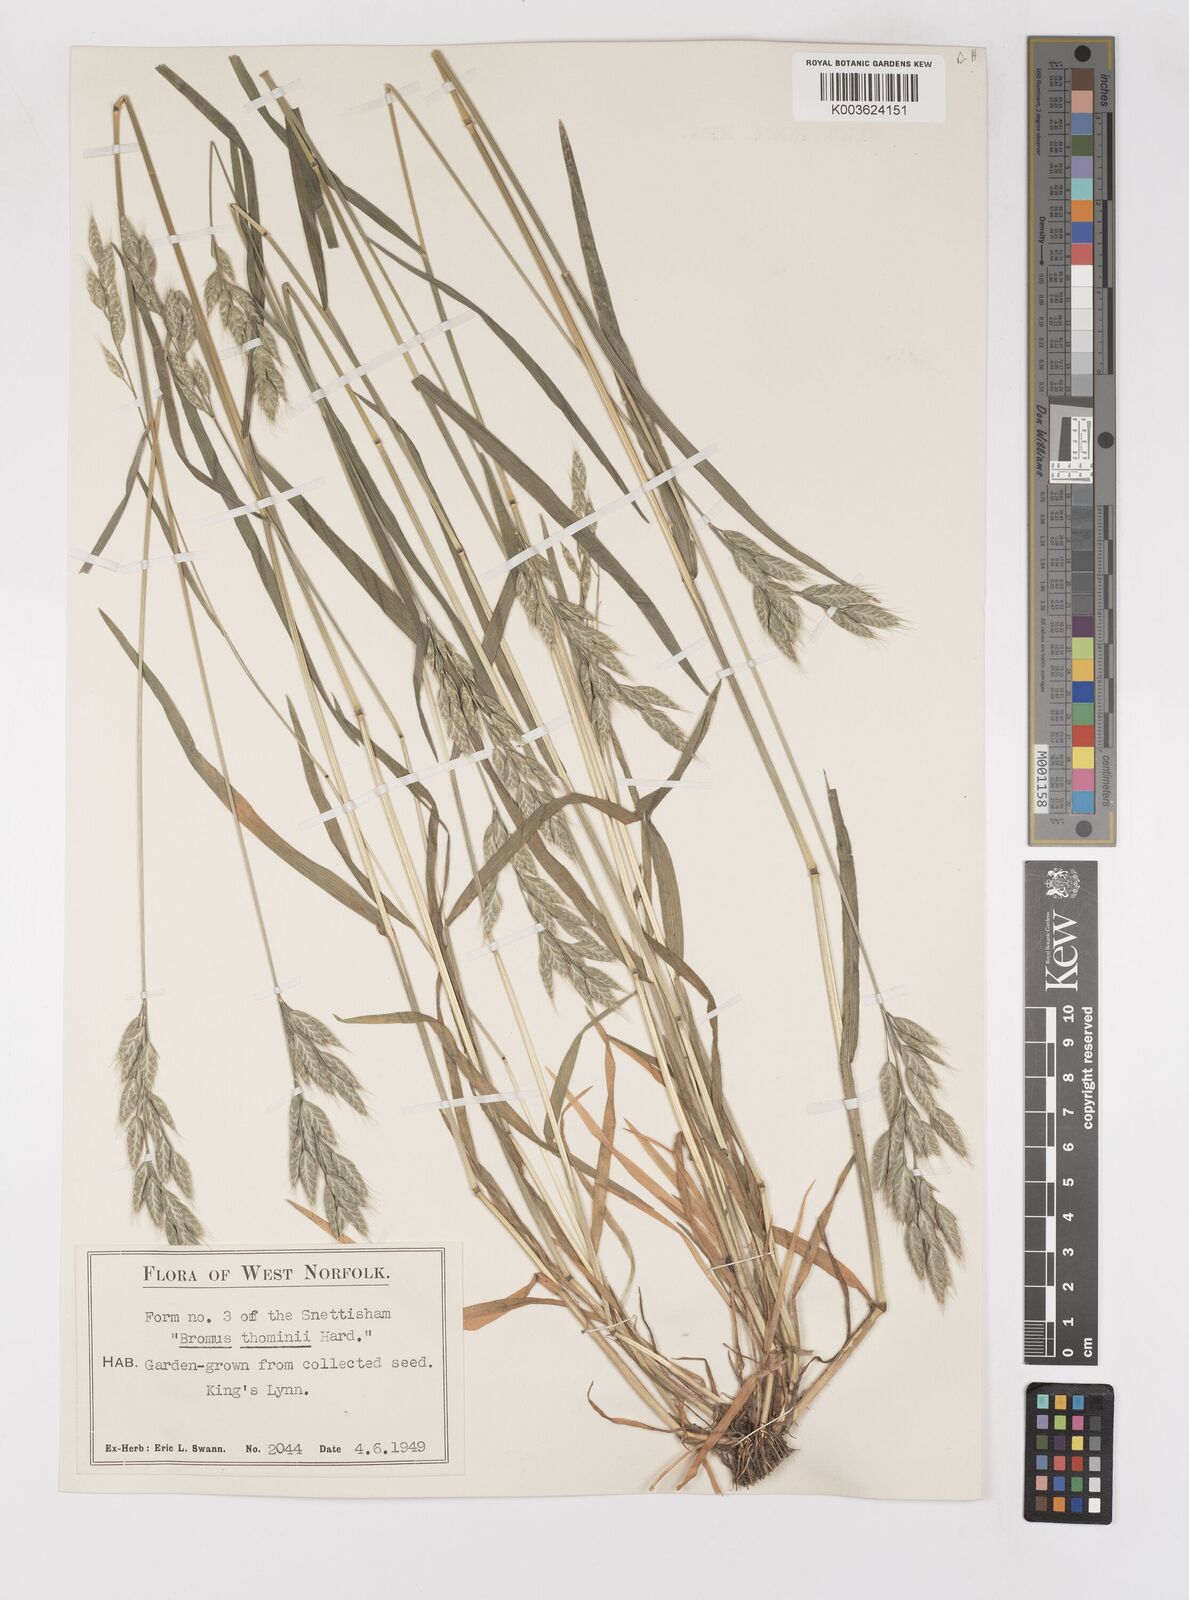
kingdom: Plantae
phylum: Tracheophyta
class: Liliopsida
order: Poales
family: Poaceae
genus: Bromus
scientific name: Bromus hordeaceus
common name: Soft brome
